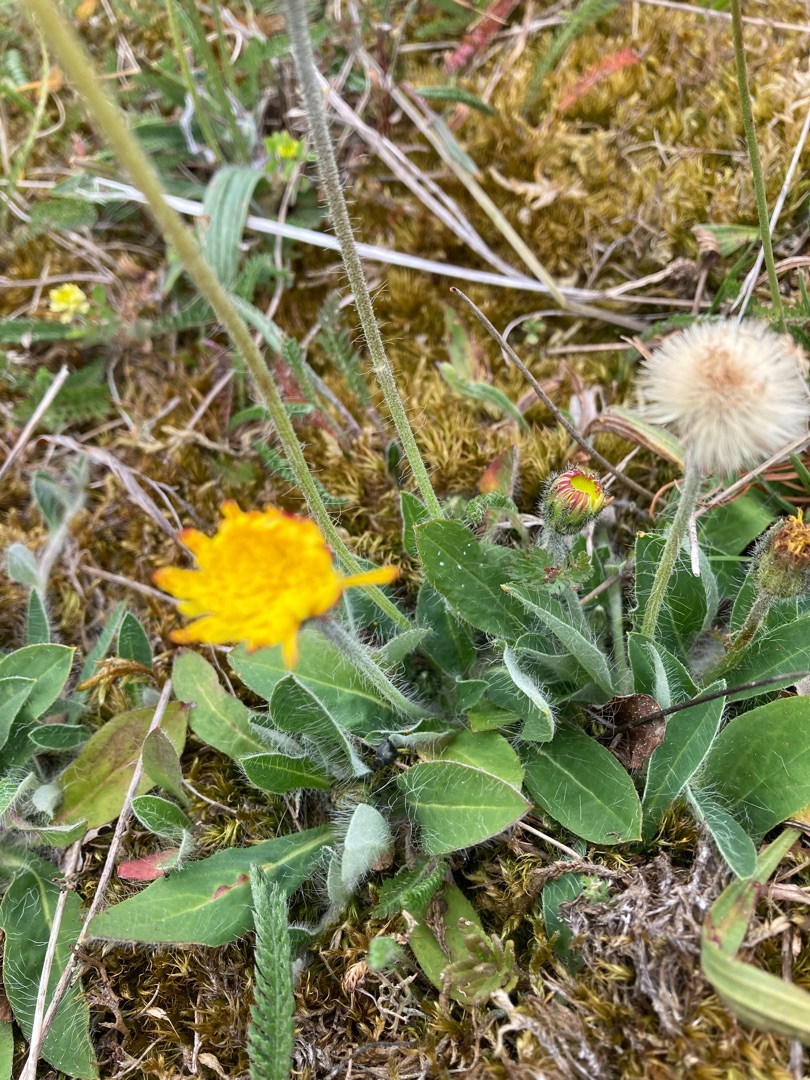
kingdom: Plantae
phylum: Tracheophyta
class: Magnoliopsida
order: Asterales
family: Asteraceae
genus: Pilosella
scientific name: Pilosella officinarum
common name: Håret høgeurt
